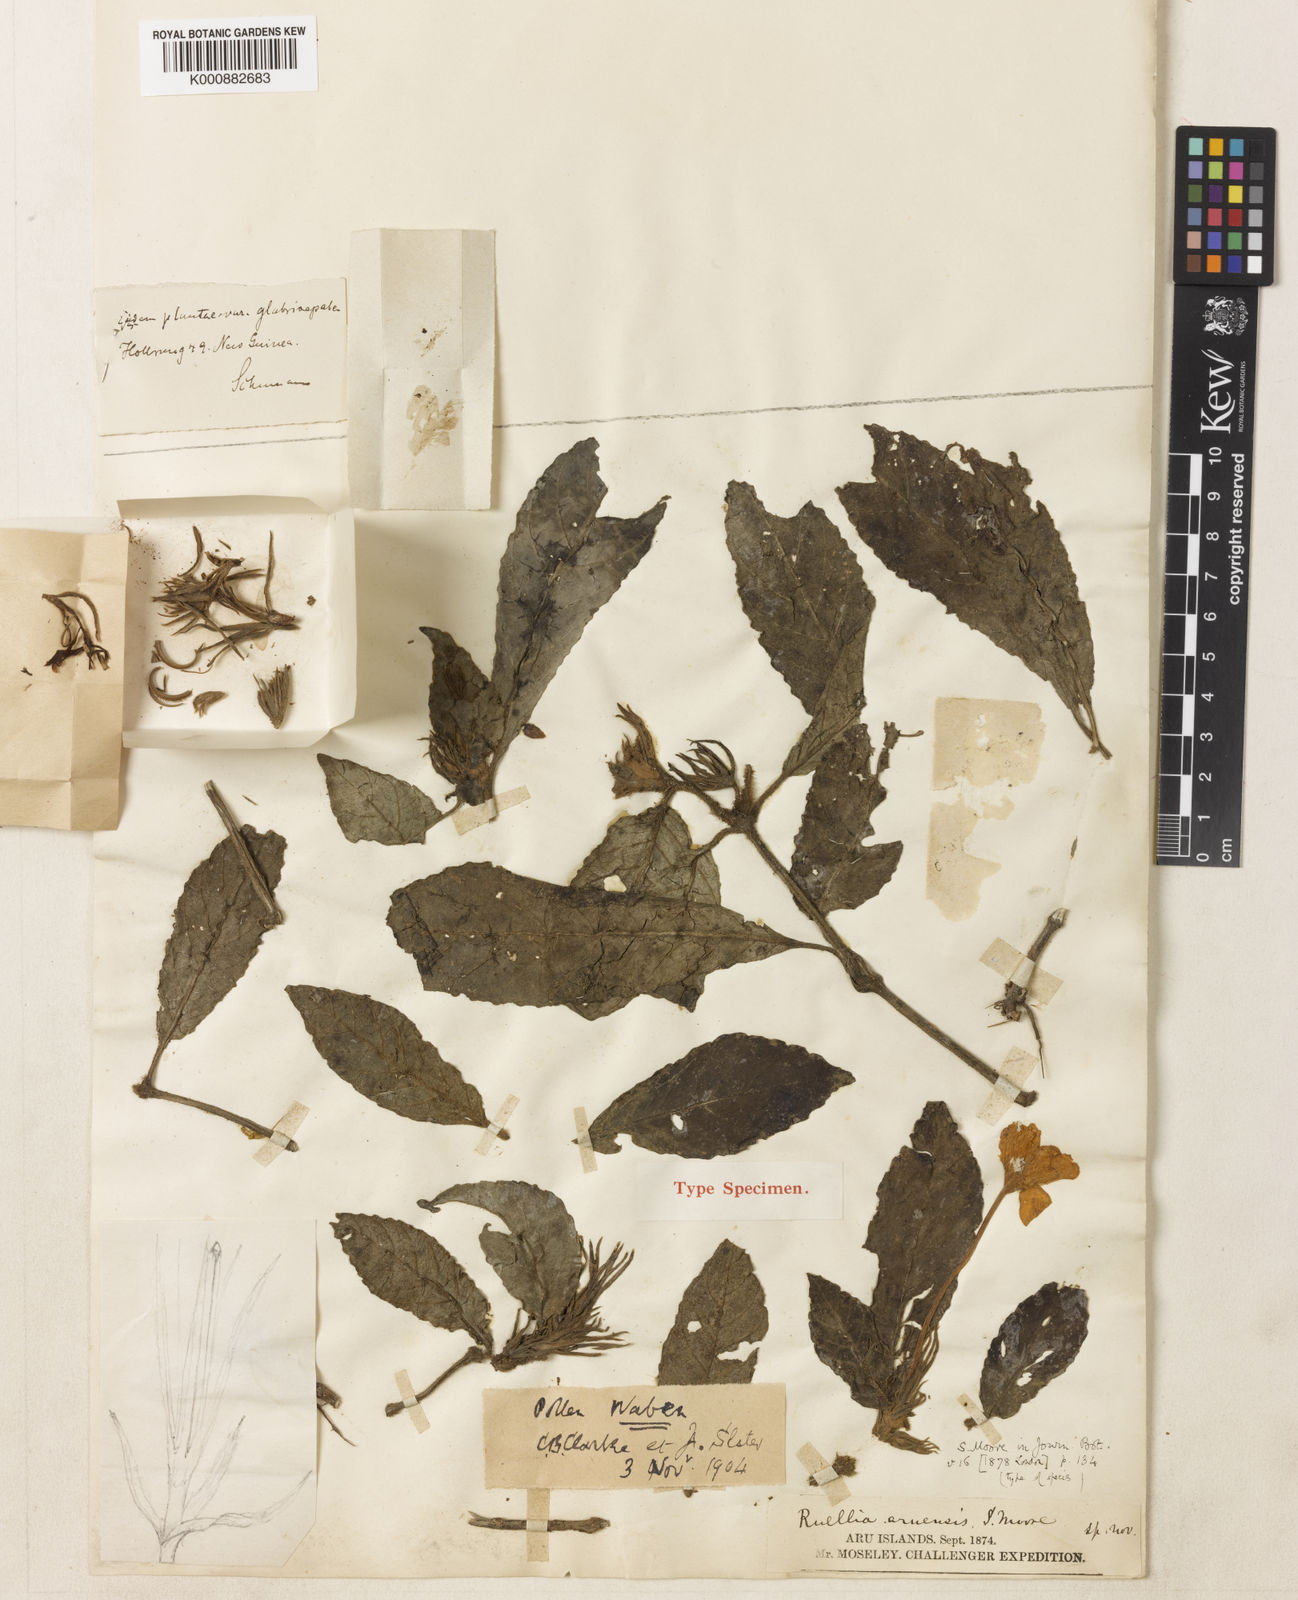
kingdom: Plantae
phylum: Tracheophyta
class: Magnoliopsida
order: Lamiales
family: Acanthaceae
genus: Leptosiphonium
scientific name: Leptosiphonium aruense
